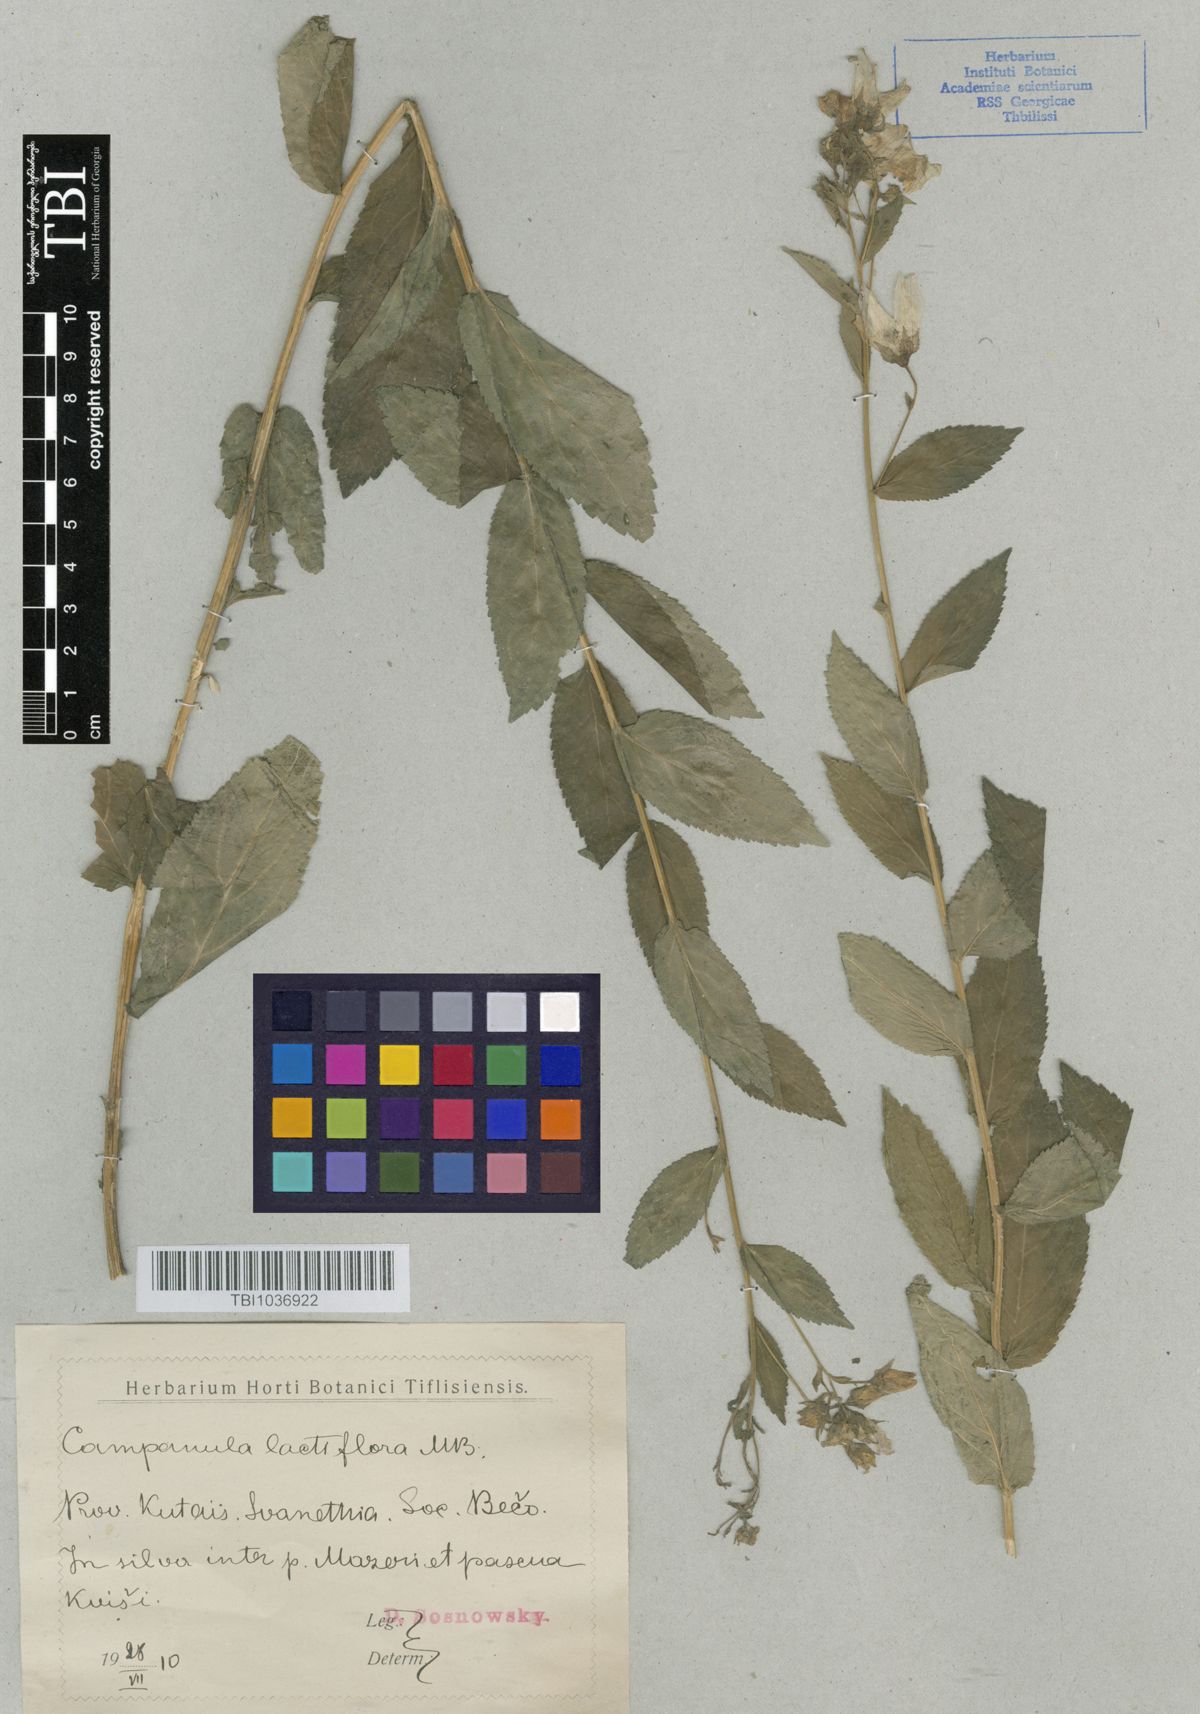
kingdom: Plantae
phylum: Tracheophyta
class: Magnoliopsida
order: Asterales
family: Campanulaceae
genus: Campanula
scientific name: Campanula lactiflora
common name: Milky bellflower
